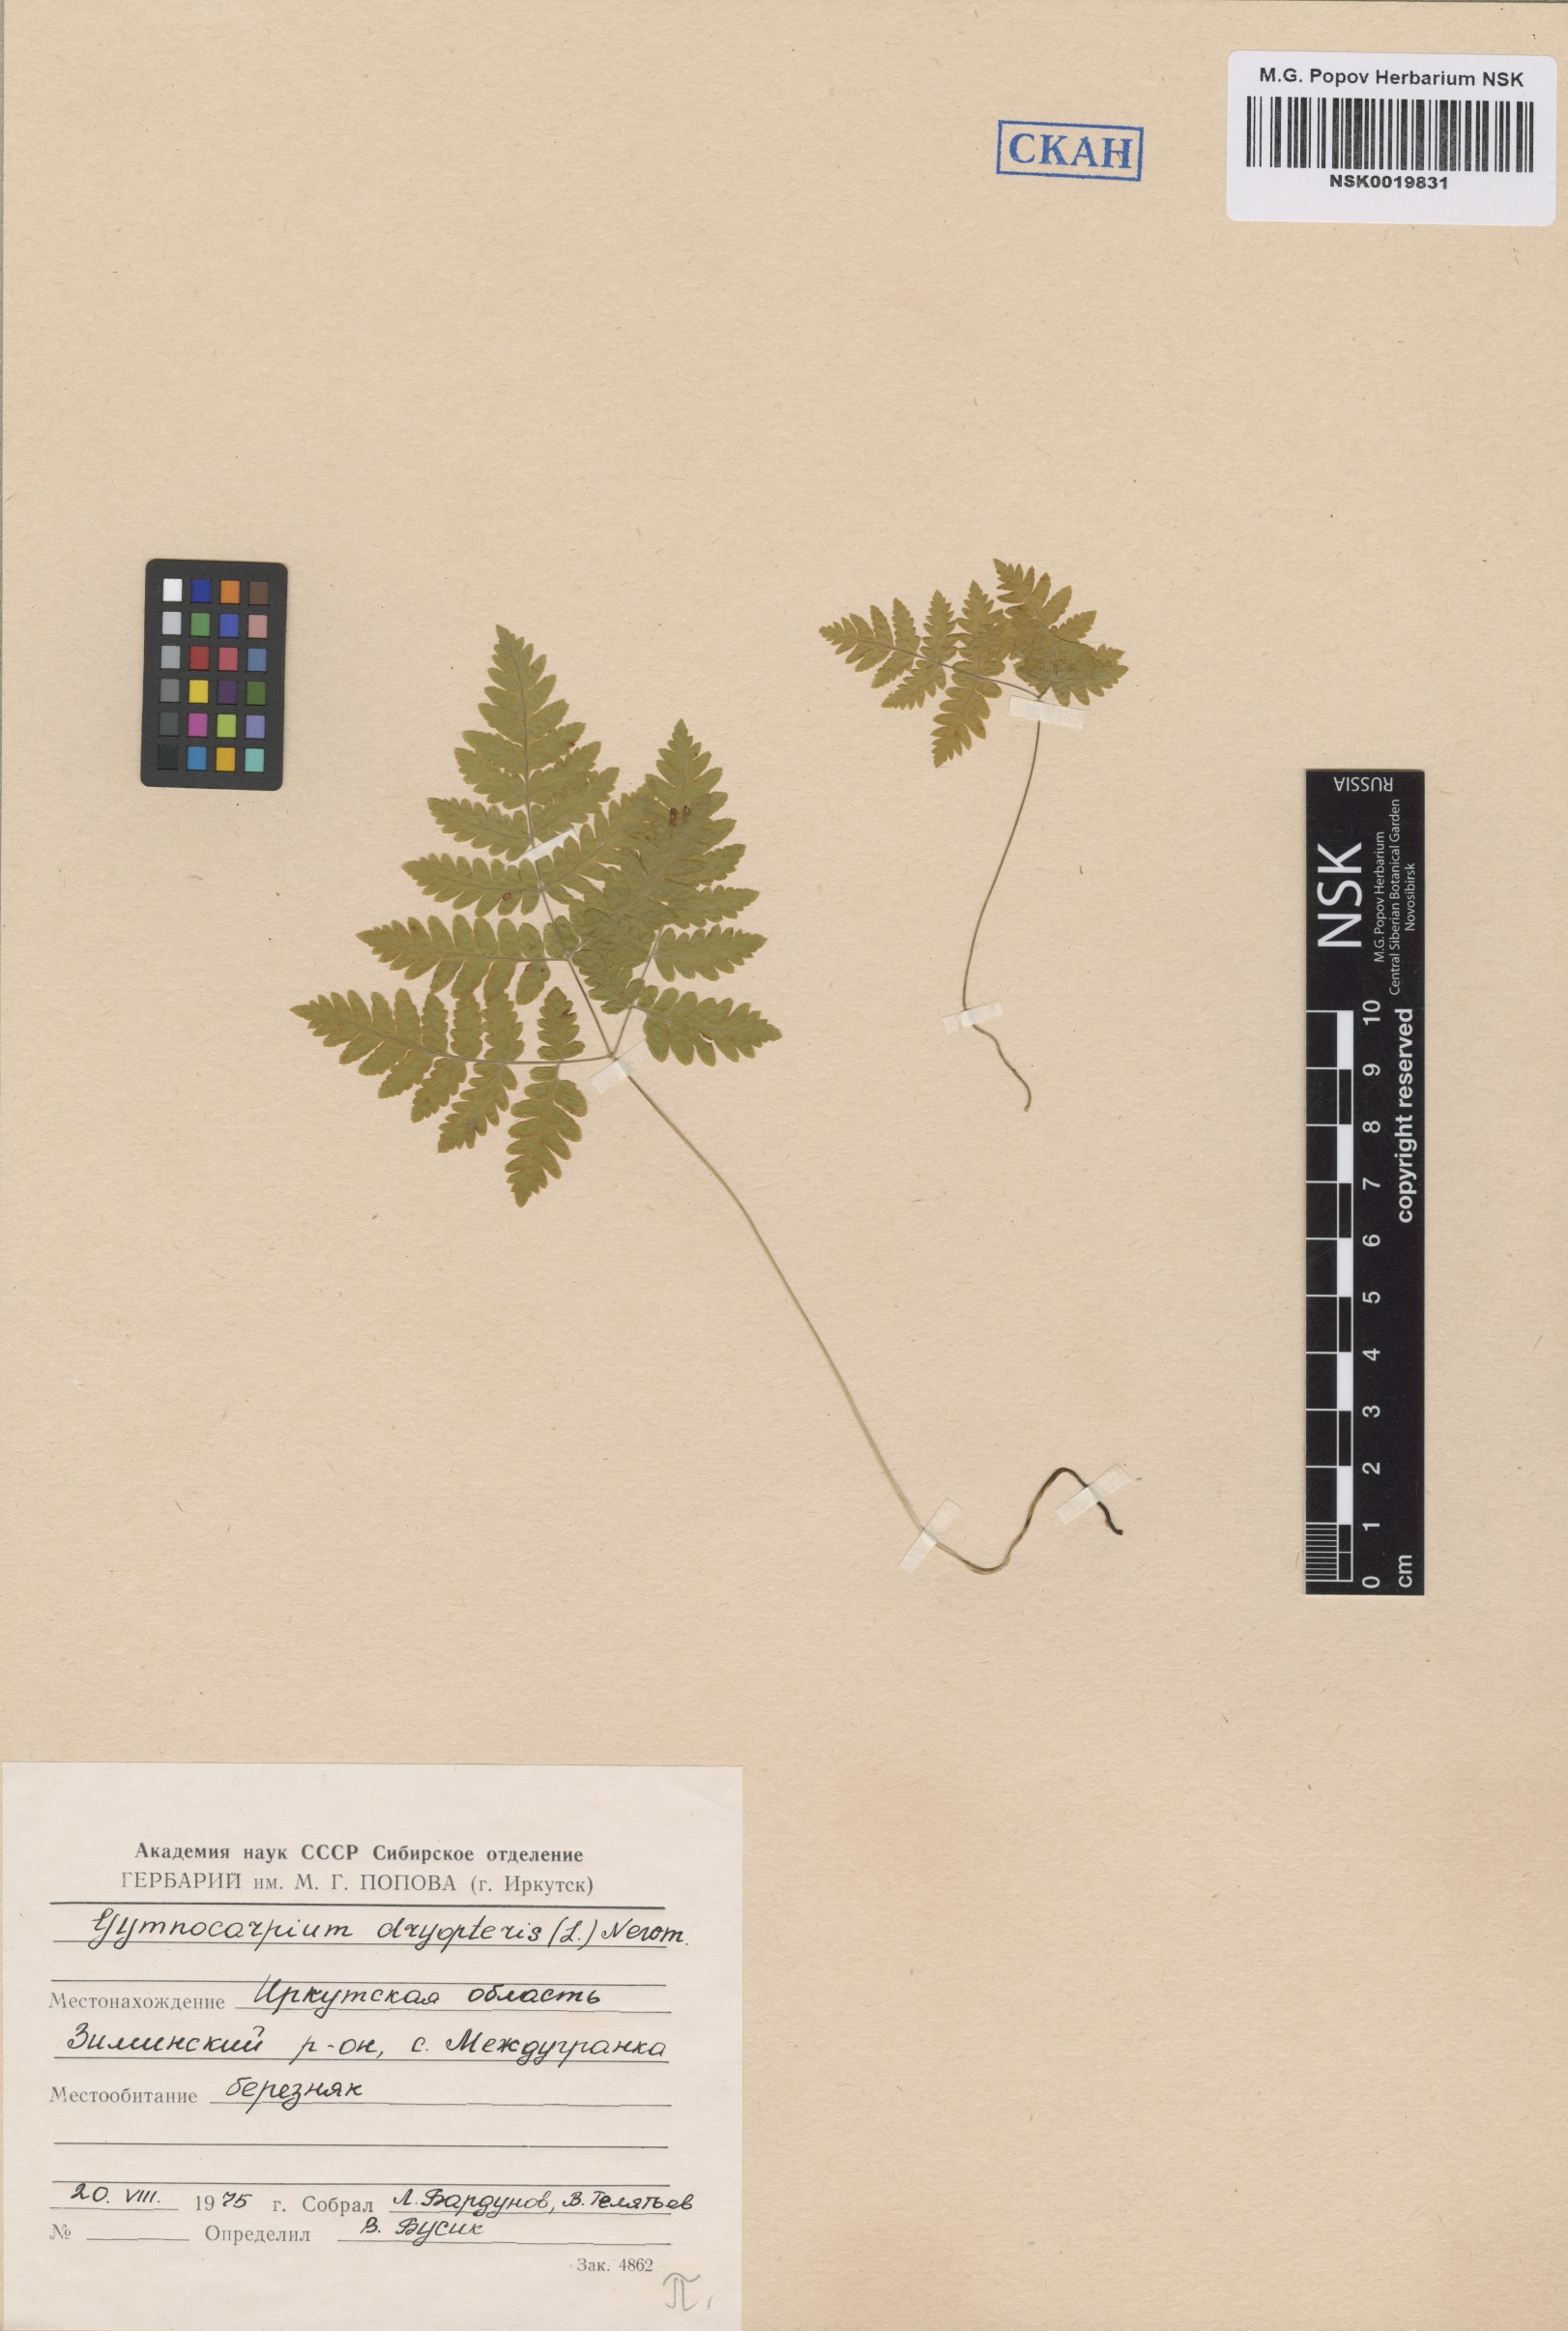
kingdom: Plantae
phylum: Tracheophyta
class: Polypodiopsida
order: Polypodiales
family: Cystopteridaceae
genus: Gymnocarpium
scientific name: Gymnocarpium dryopteris
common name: Oak fern
